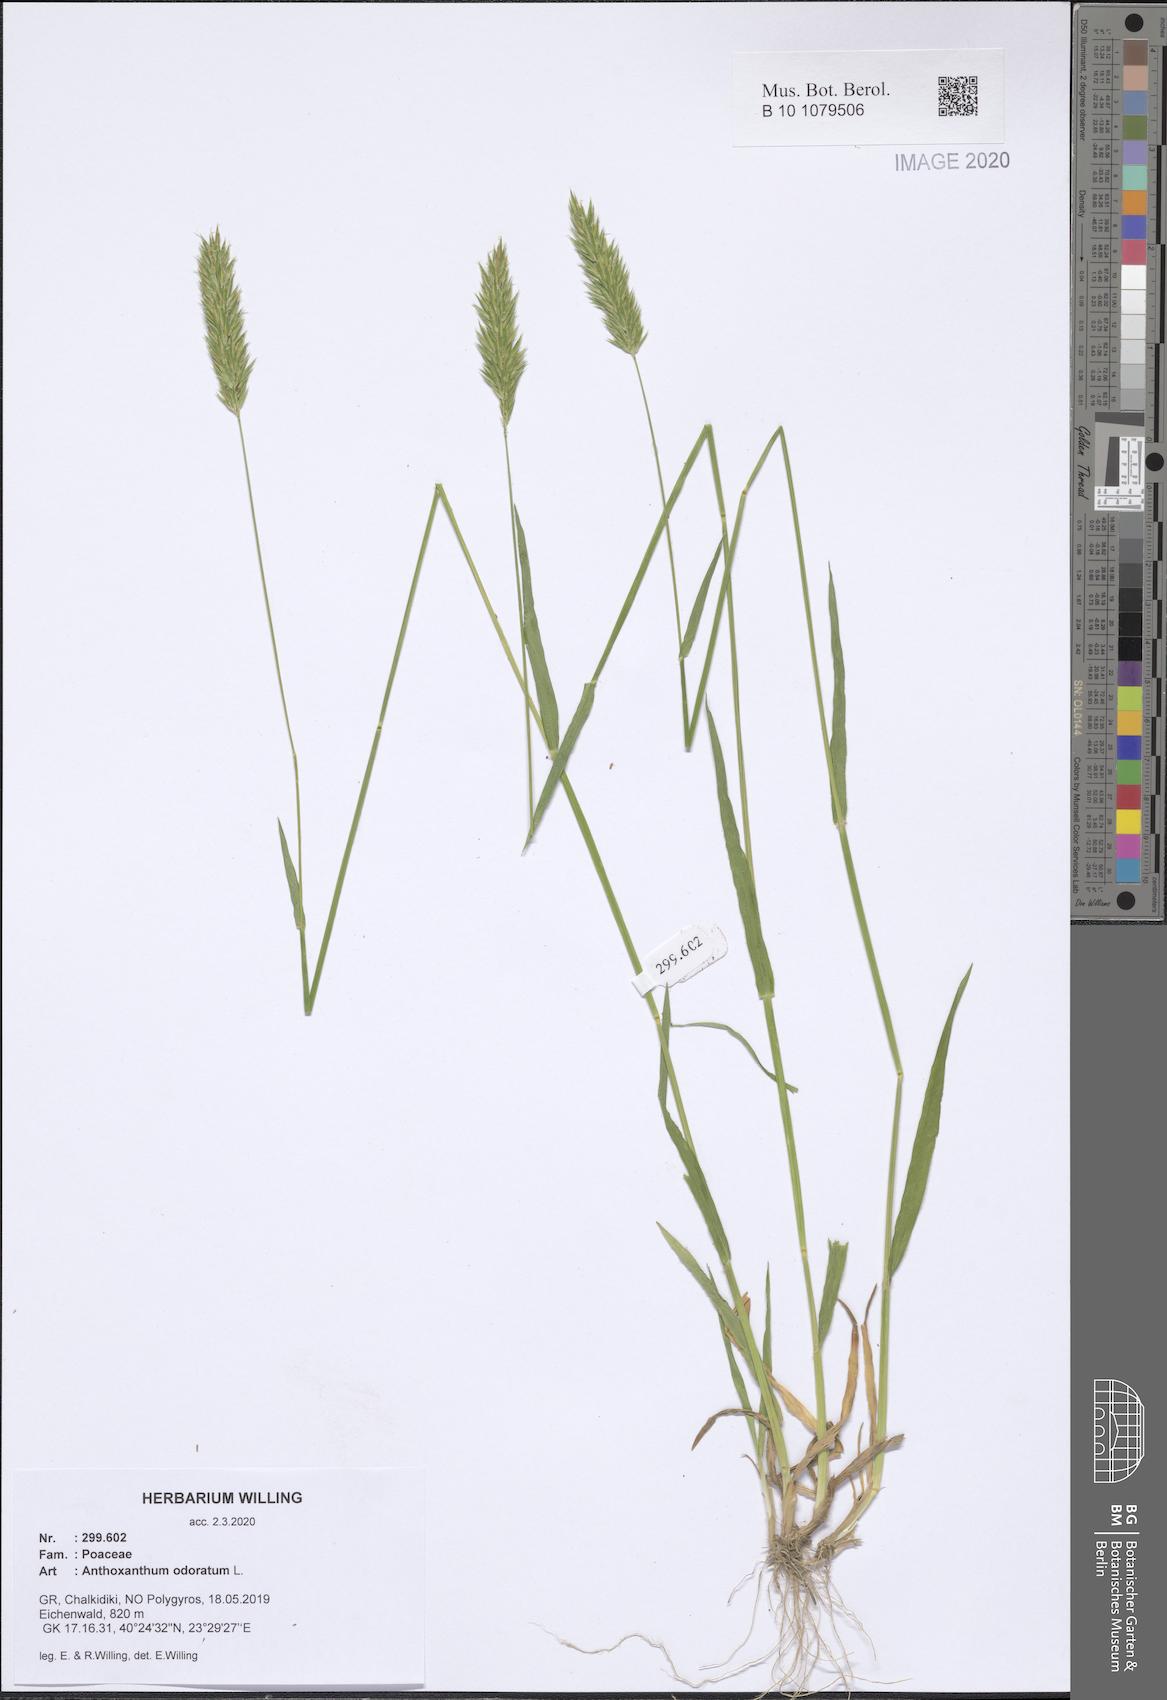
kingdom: Plantae
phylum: Tracheophyta
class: Liliopsida
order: Poales
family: Poaceae
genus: Anthoxanthum
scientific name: Anthoxanthum odoratum
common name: Sweet vernalgrass
